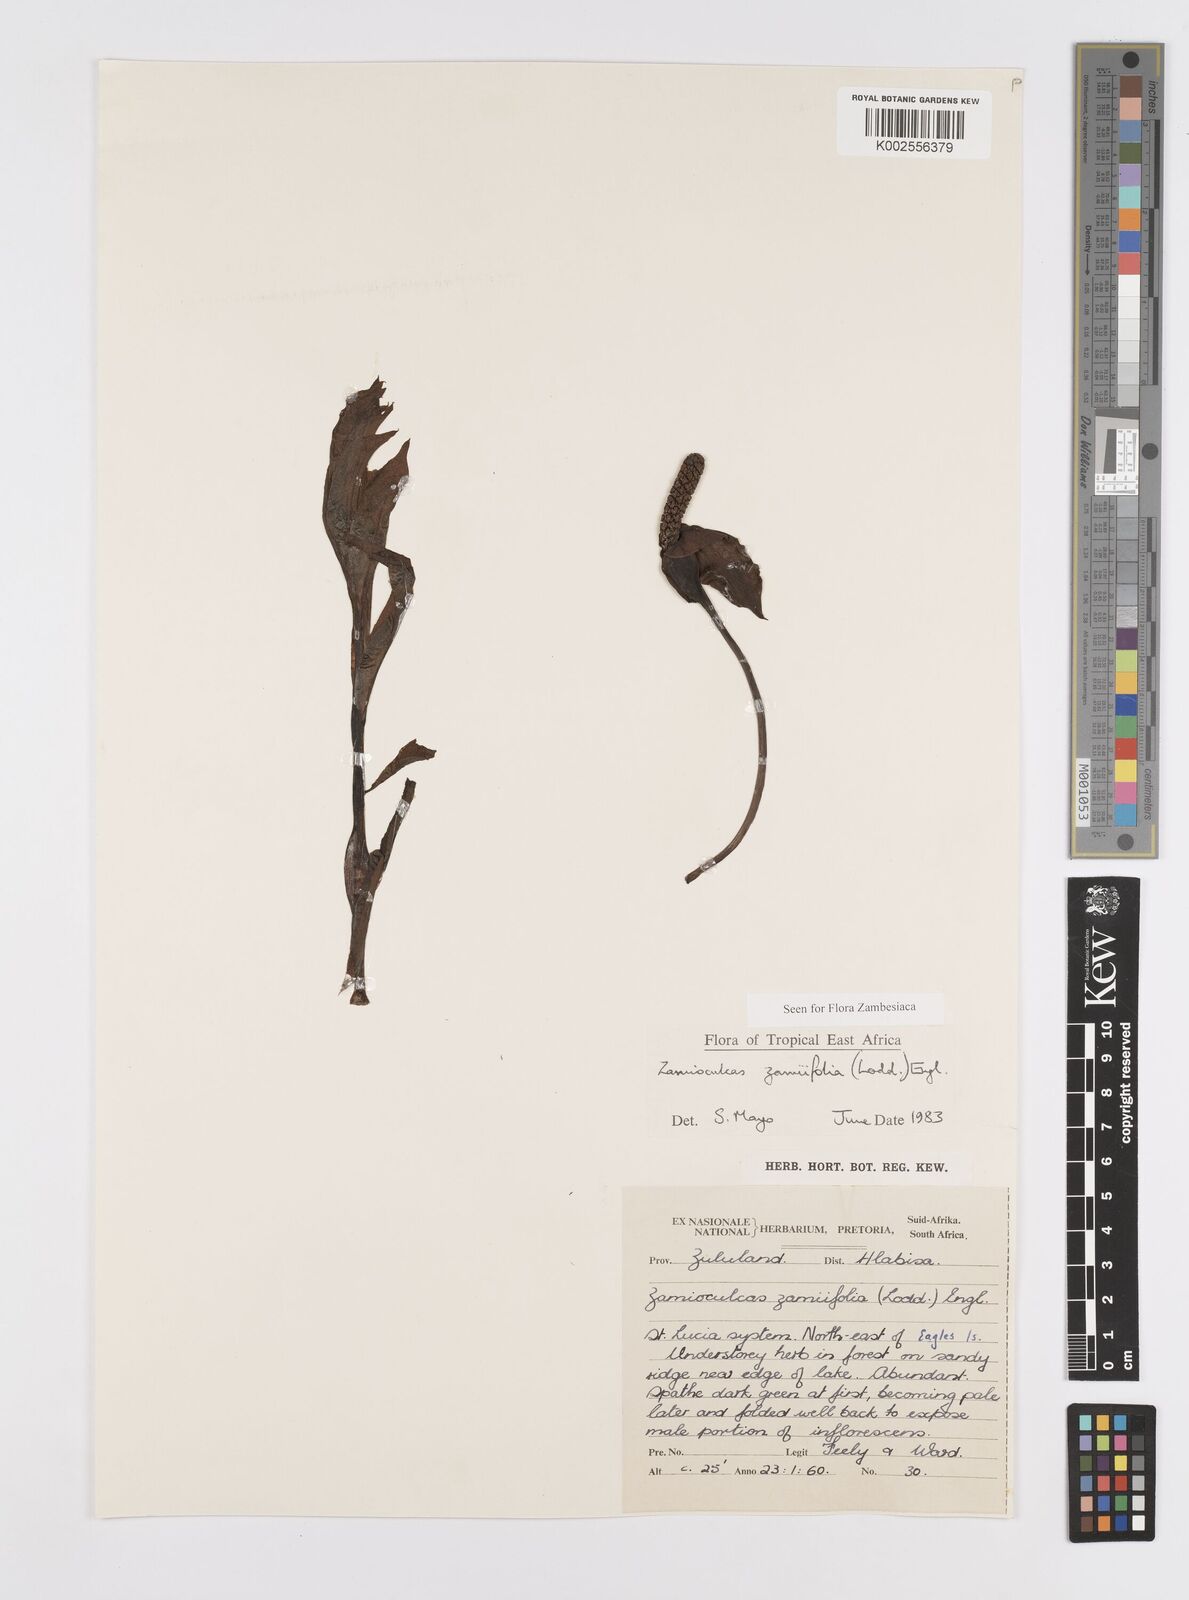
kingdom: Plantae
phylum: Tracheophyta
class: Liliopsida
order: Alismatales
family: Araceae
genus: Zamioculcas
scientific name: Zamioculcas zamiifolia
